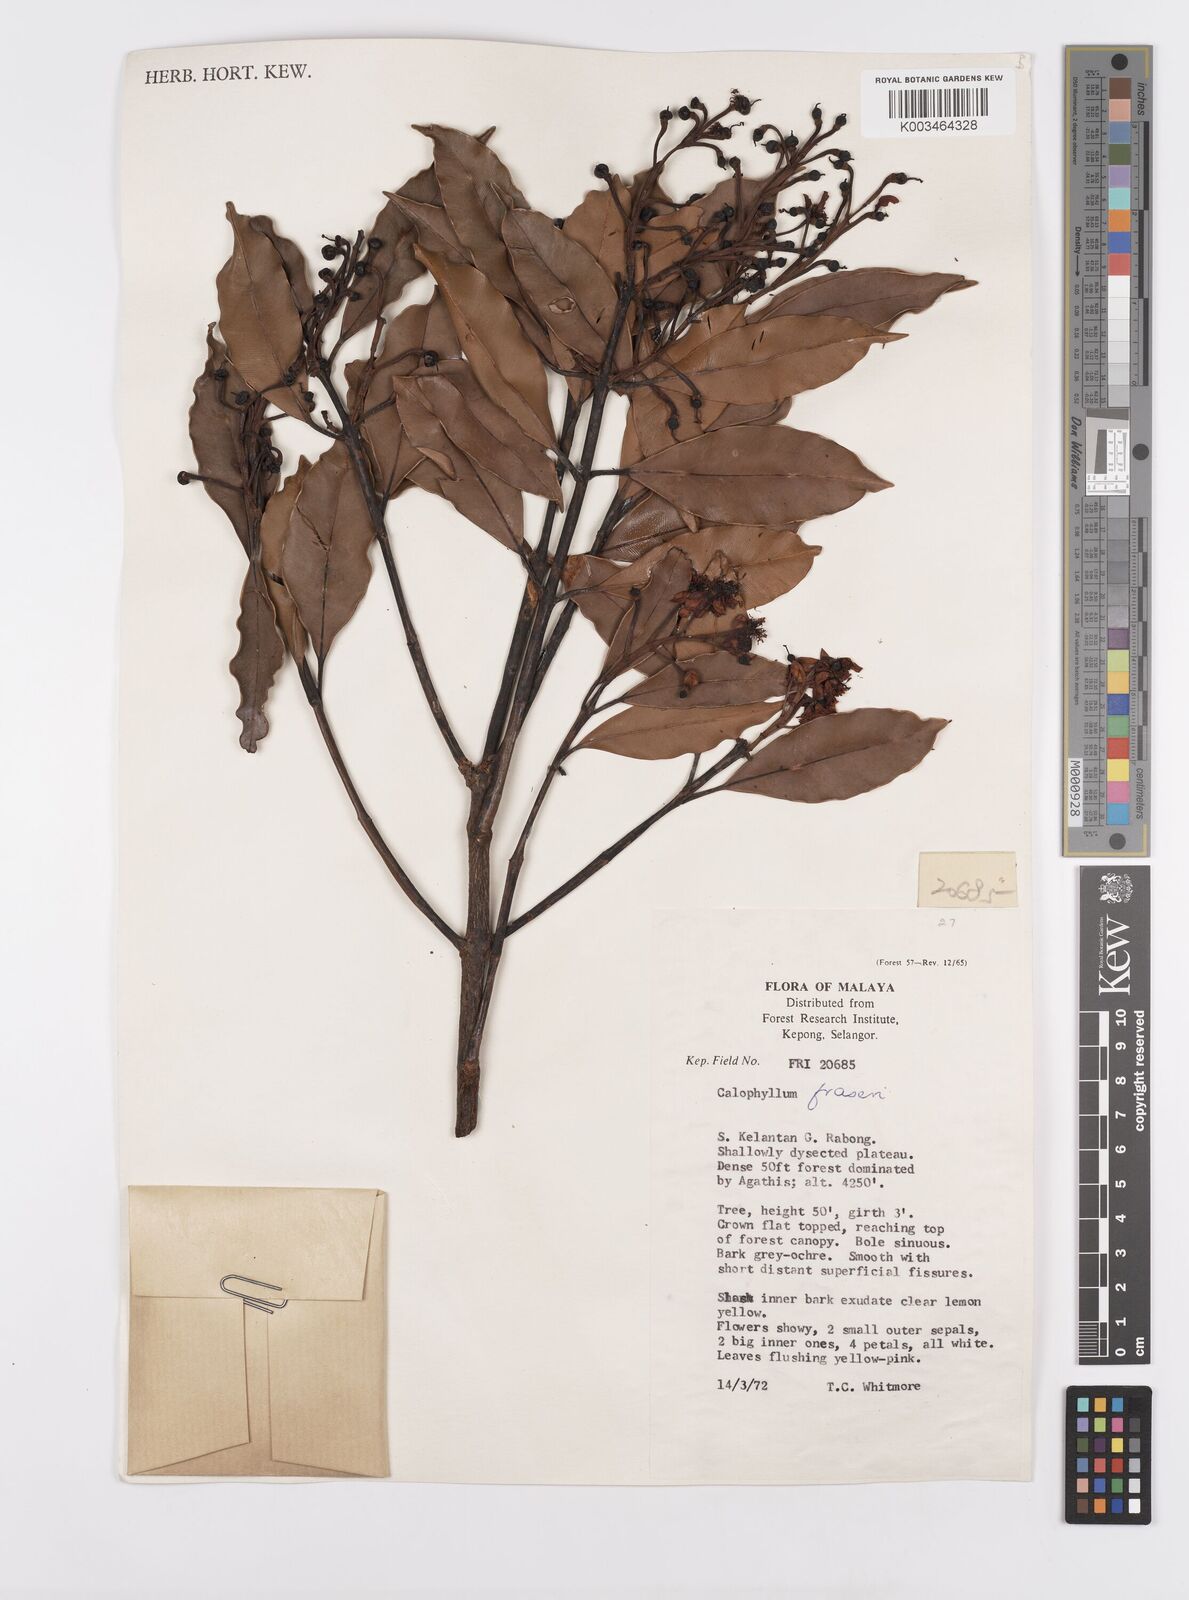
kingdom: Plantae
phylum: Tracheophyta
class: Magnoliopsida
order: Malpighiales
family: Calophyllaceae
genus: Calophyllum
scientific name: Calophyllum fraseri
